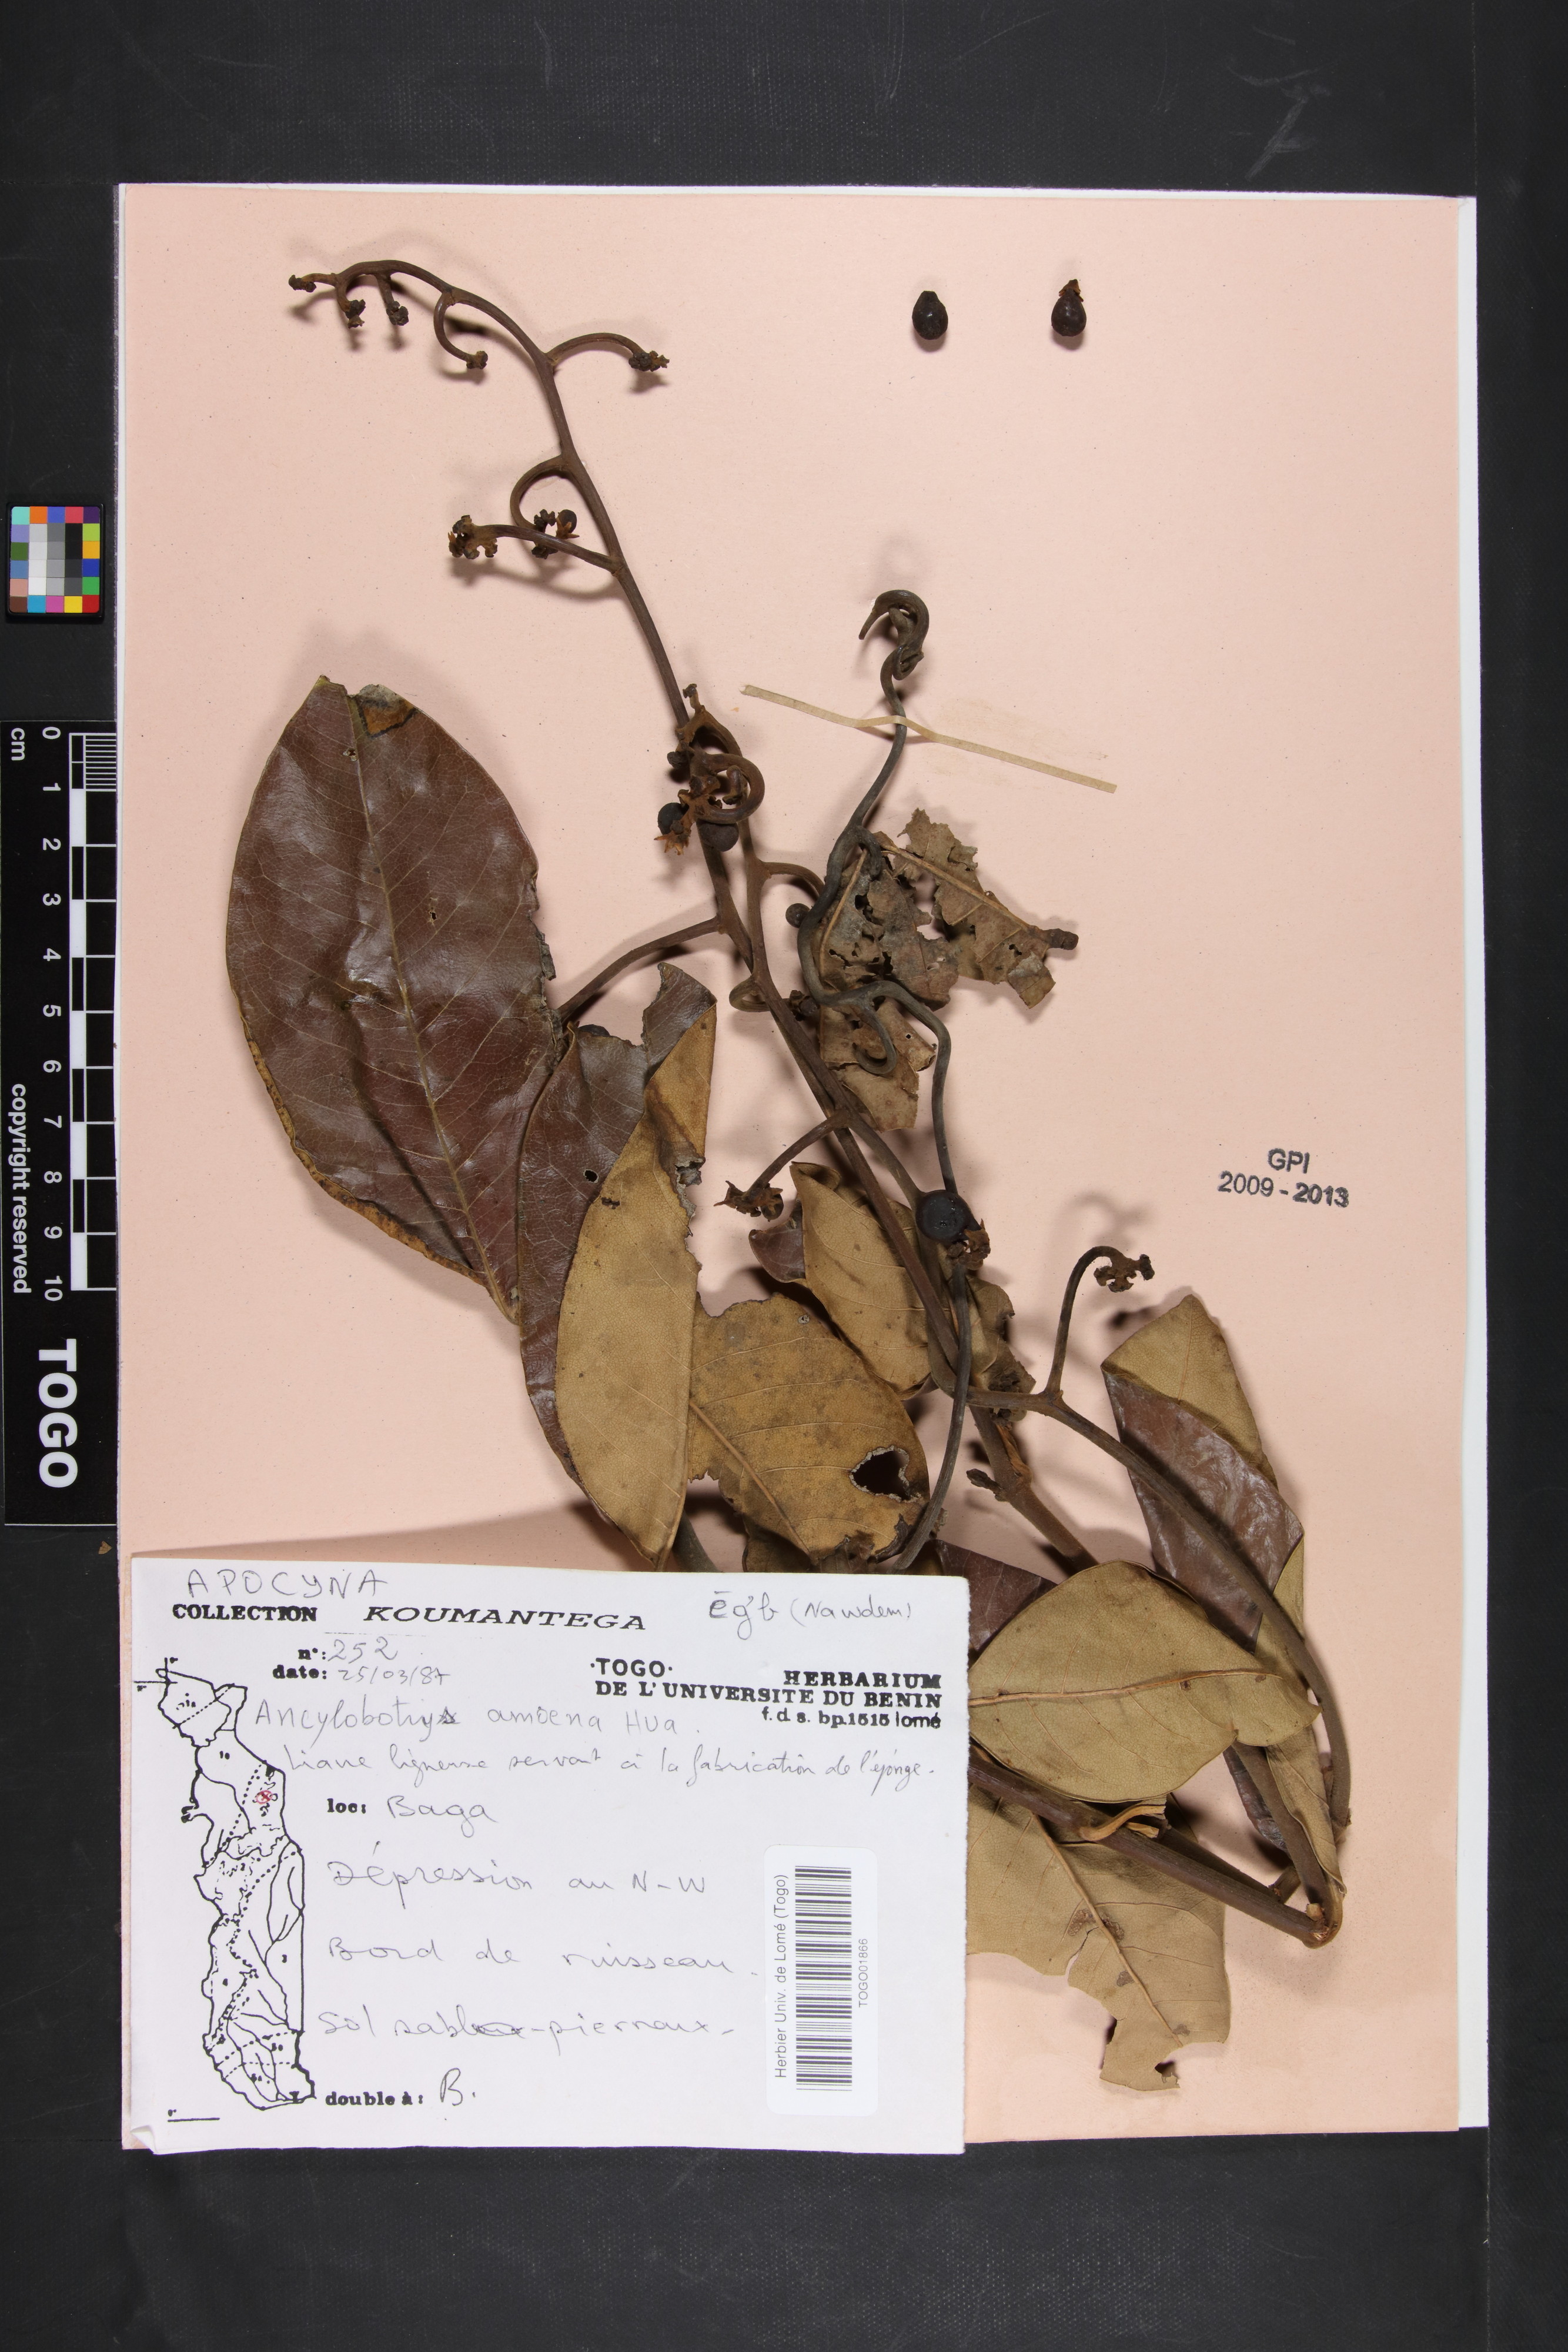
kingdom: Plantae
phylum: Tracheophyta
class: Magnoliopsida
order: Gentianales
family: Apocynaceae
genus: Ancylobothrys
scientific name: Ancylobothrys amoena
